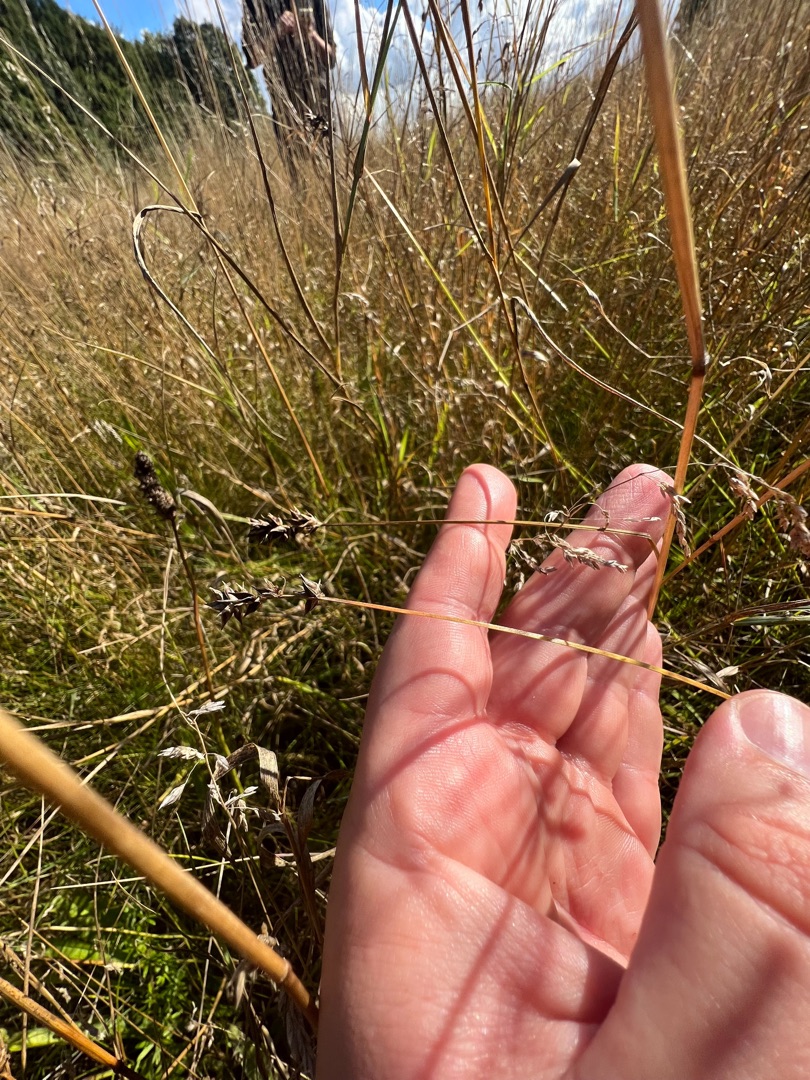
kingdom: Plantae
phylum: Tracheophyta
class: Liliopsida
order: Poales
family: Cyperaceae
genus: Carex
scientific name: Carex spicata
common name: Spidskapslet star
